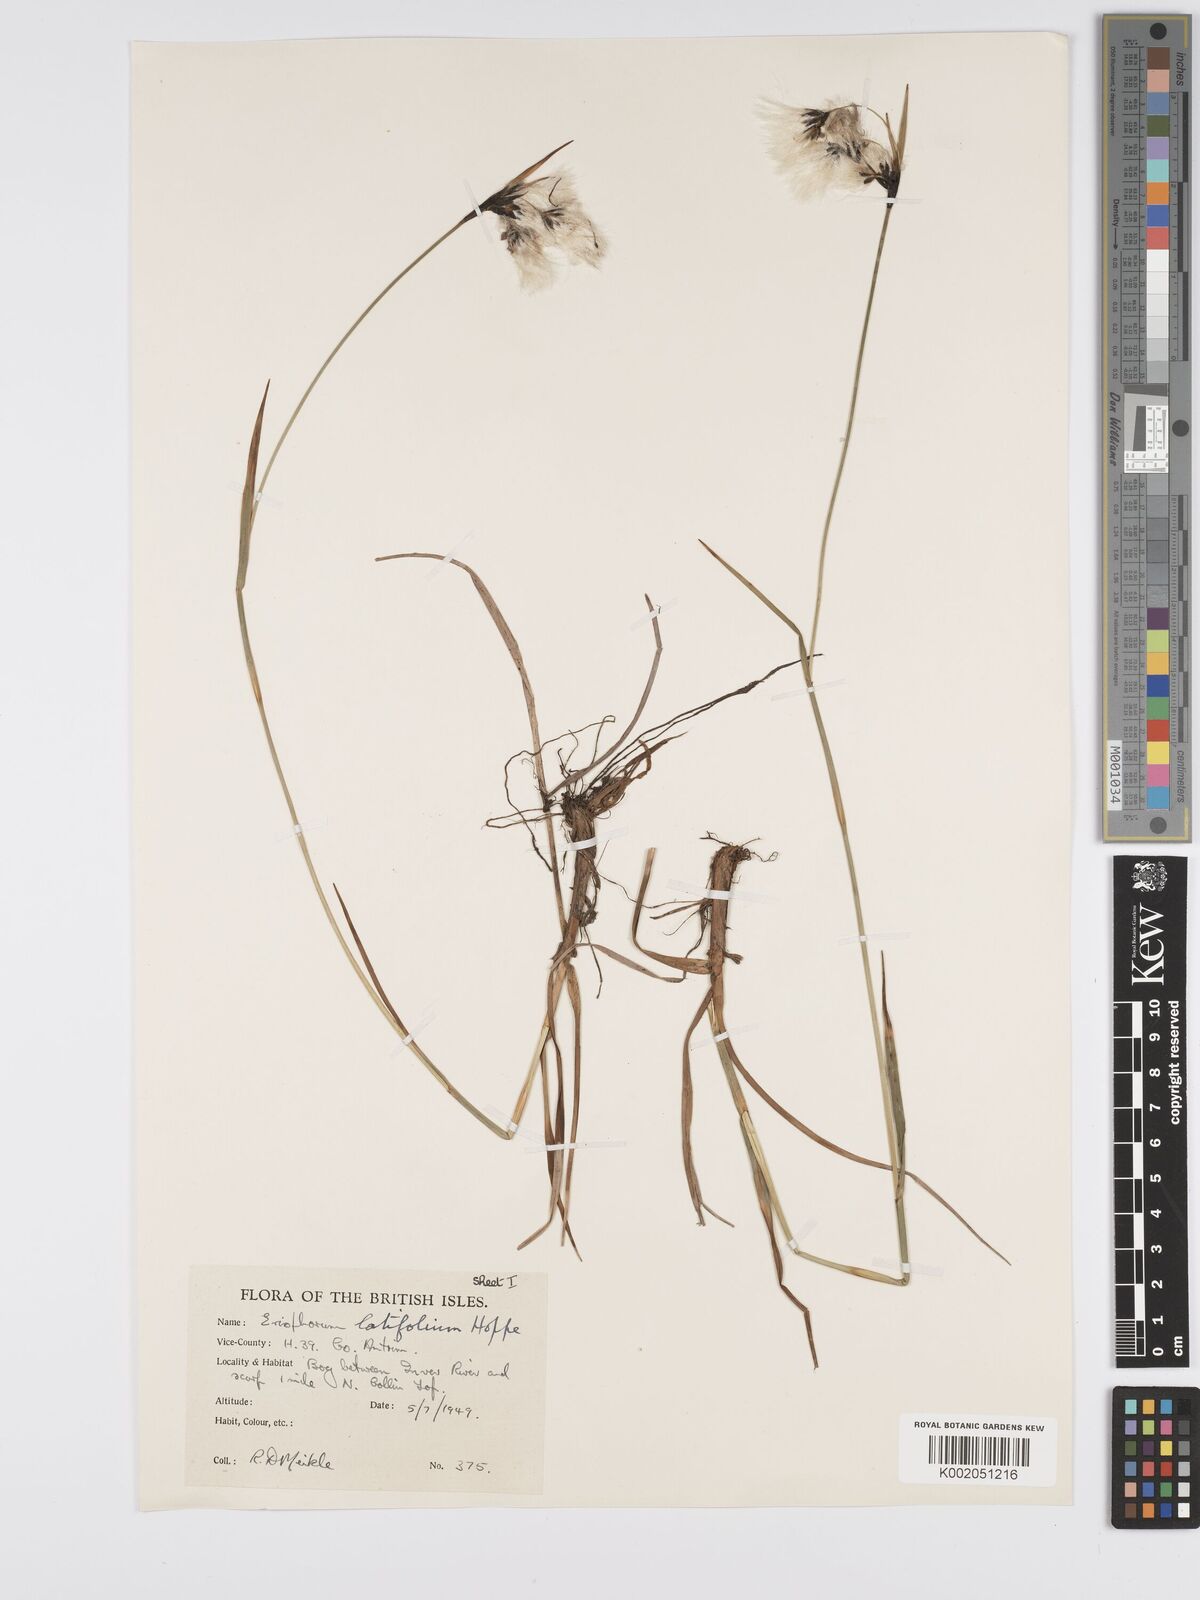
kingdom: Plantae
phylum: Tracheophyta
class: Liliopsida
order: Poales
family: Cyperaceae
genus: Eriophorum
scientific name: Eriophorum latifolium
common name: Broad-leaved cottongrass
